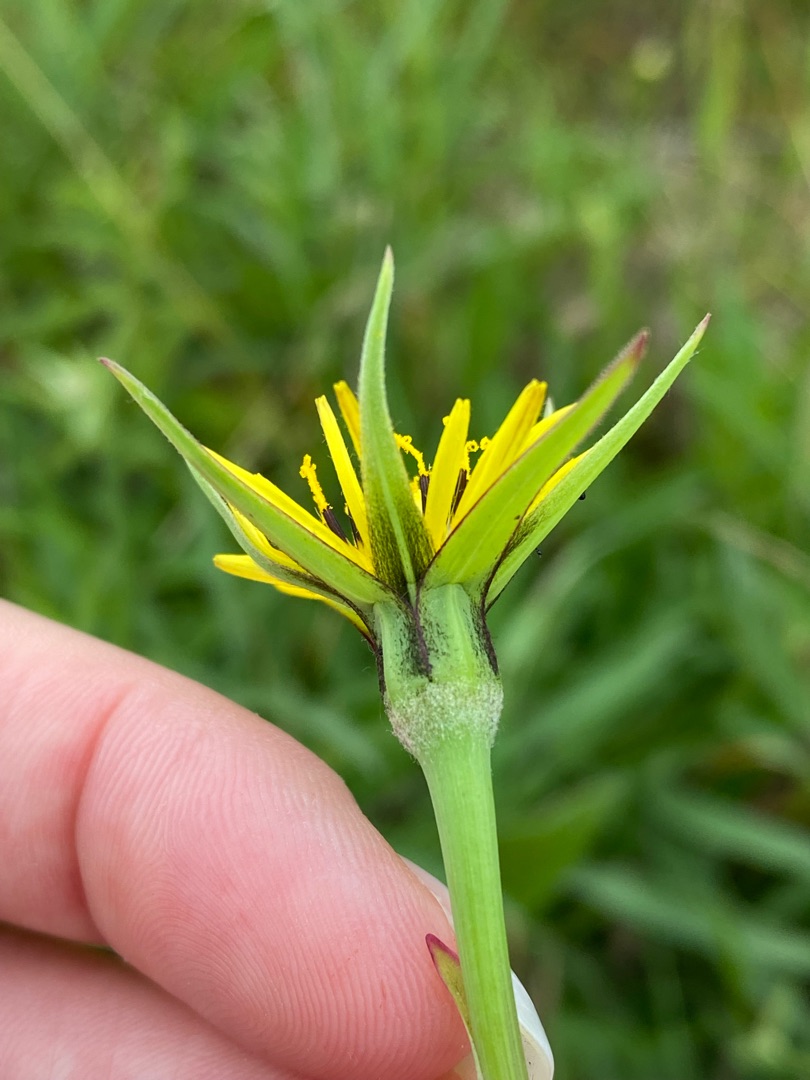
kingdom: Plantae
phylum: Tracheophyta
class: Magnoliopsida
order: Asterales
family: Asteraceae
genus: Tragopogon
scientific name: Tragopogon minor
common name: Småkronet gedeskæg
